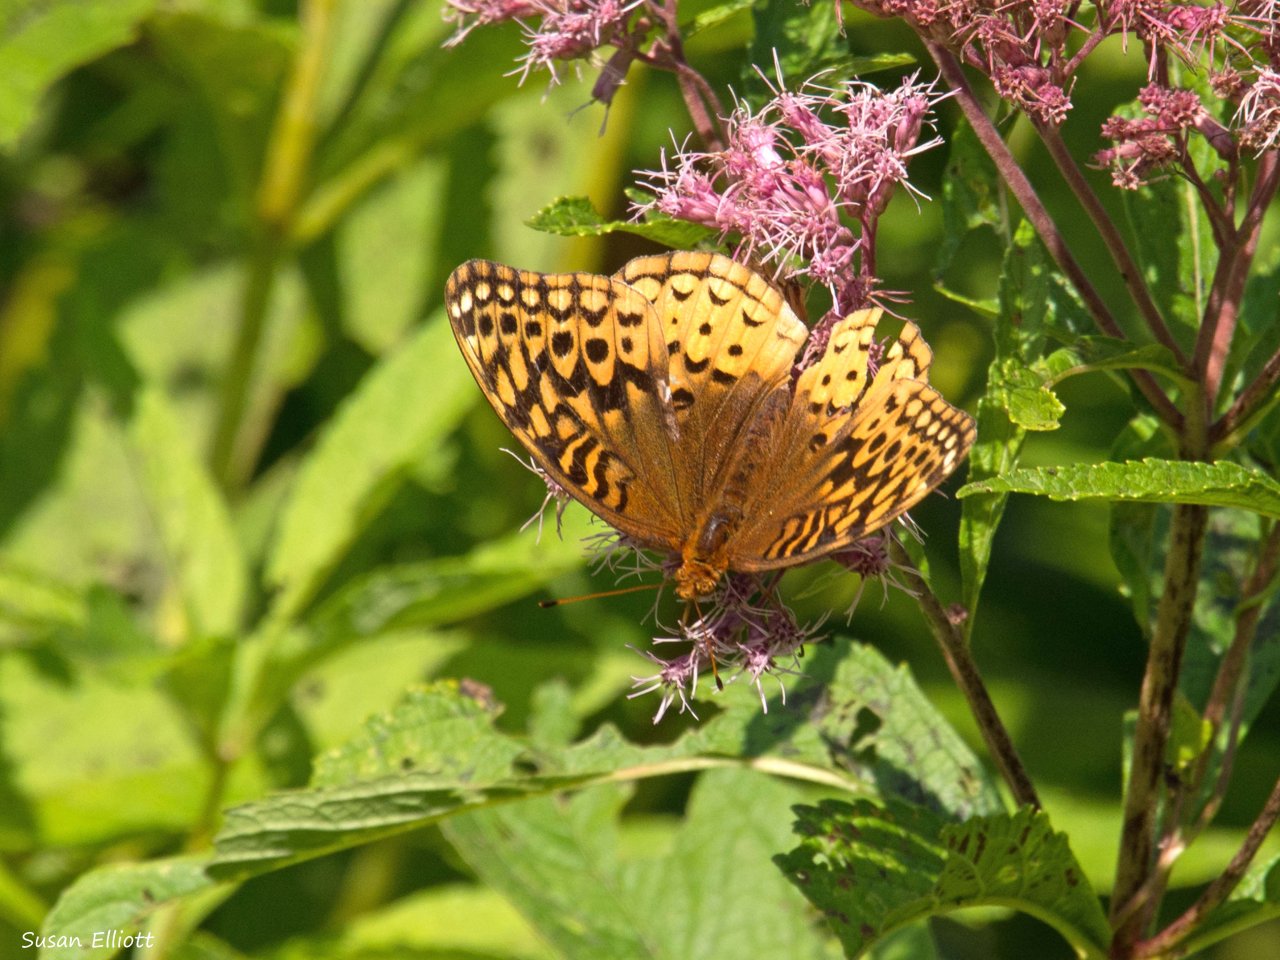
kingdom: Animalia
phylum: Arthropoda
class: Insecta
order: Lepidoptera
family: Nymphalidae
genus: Speyeria
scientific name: Speyeria cybele
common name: Great Spangled Fritillary
